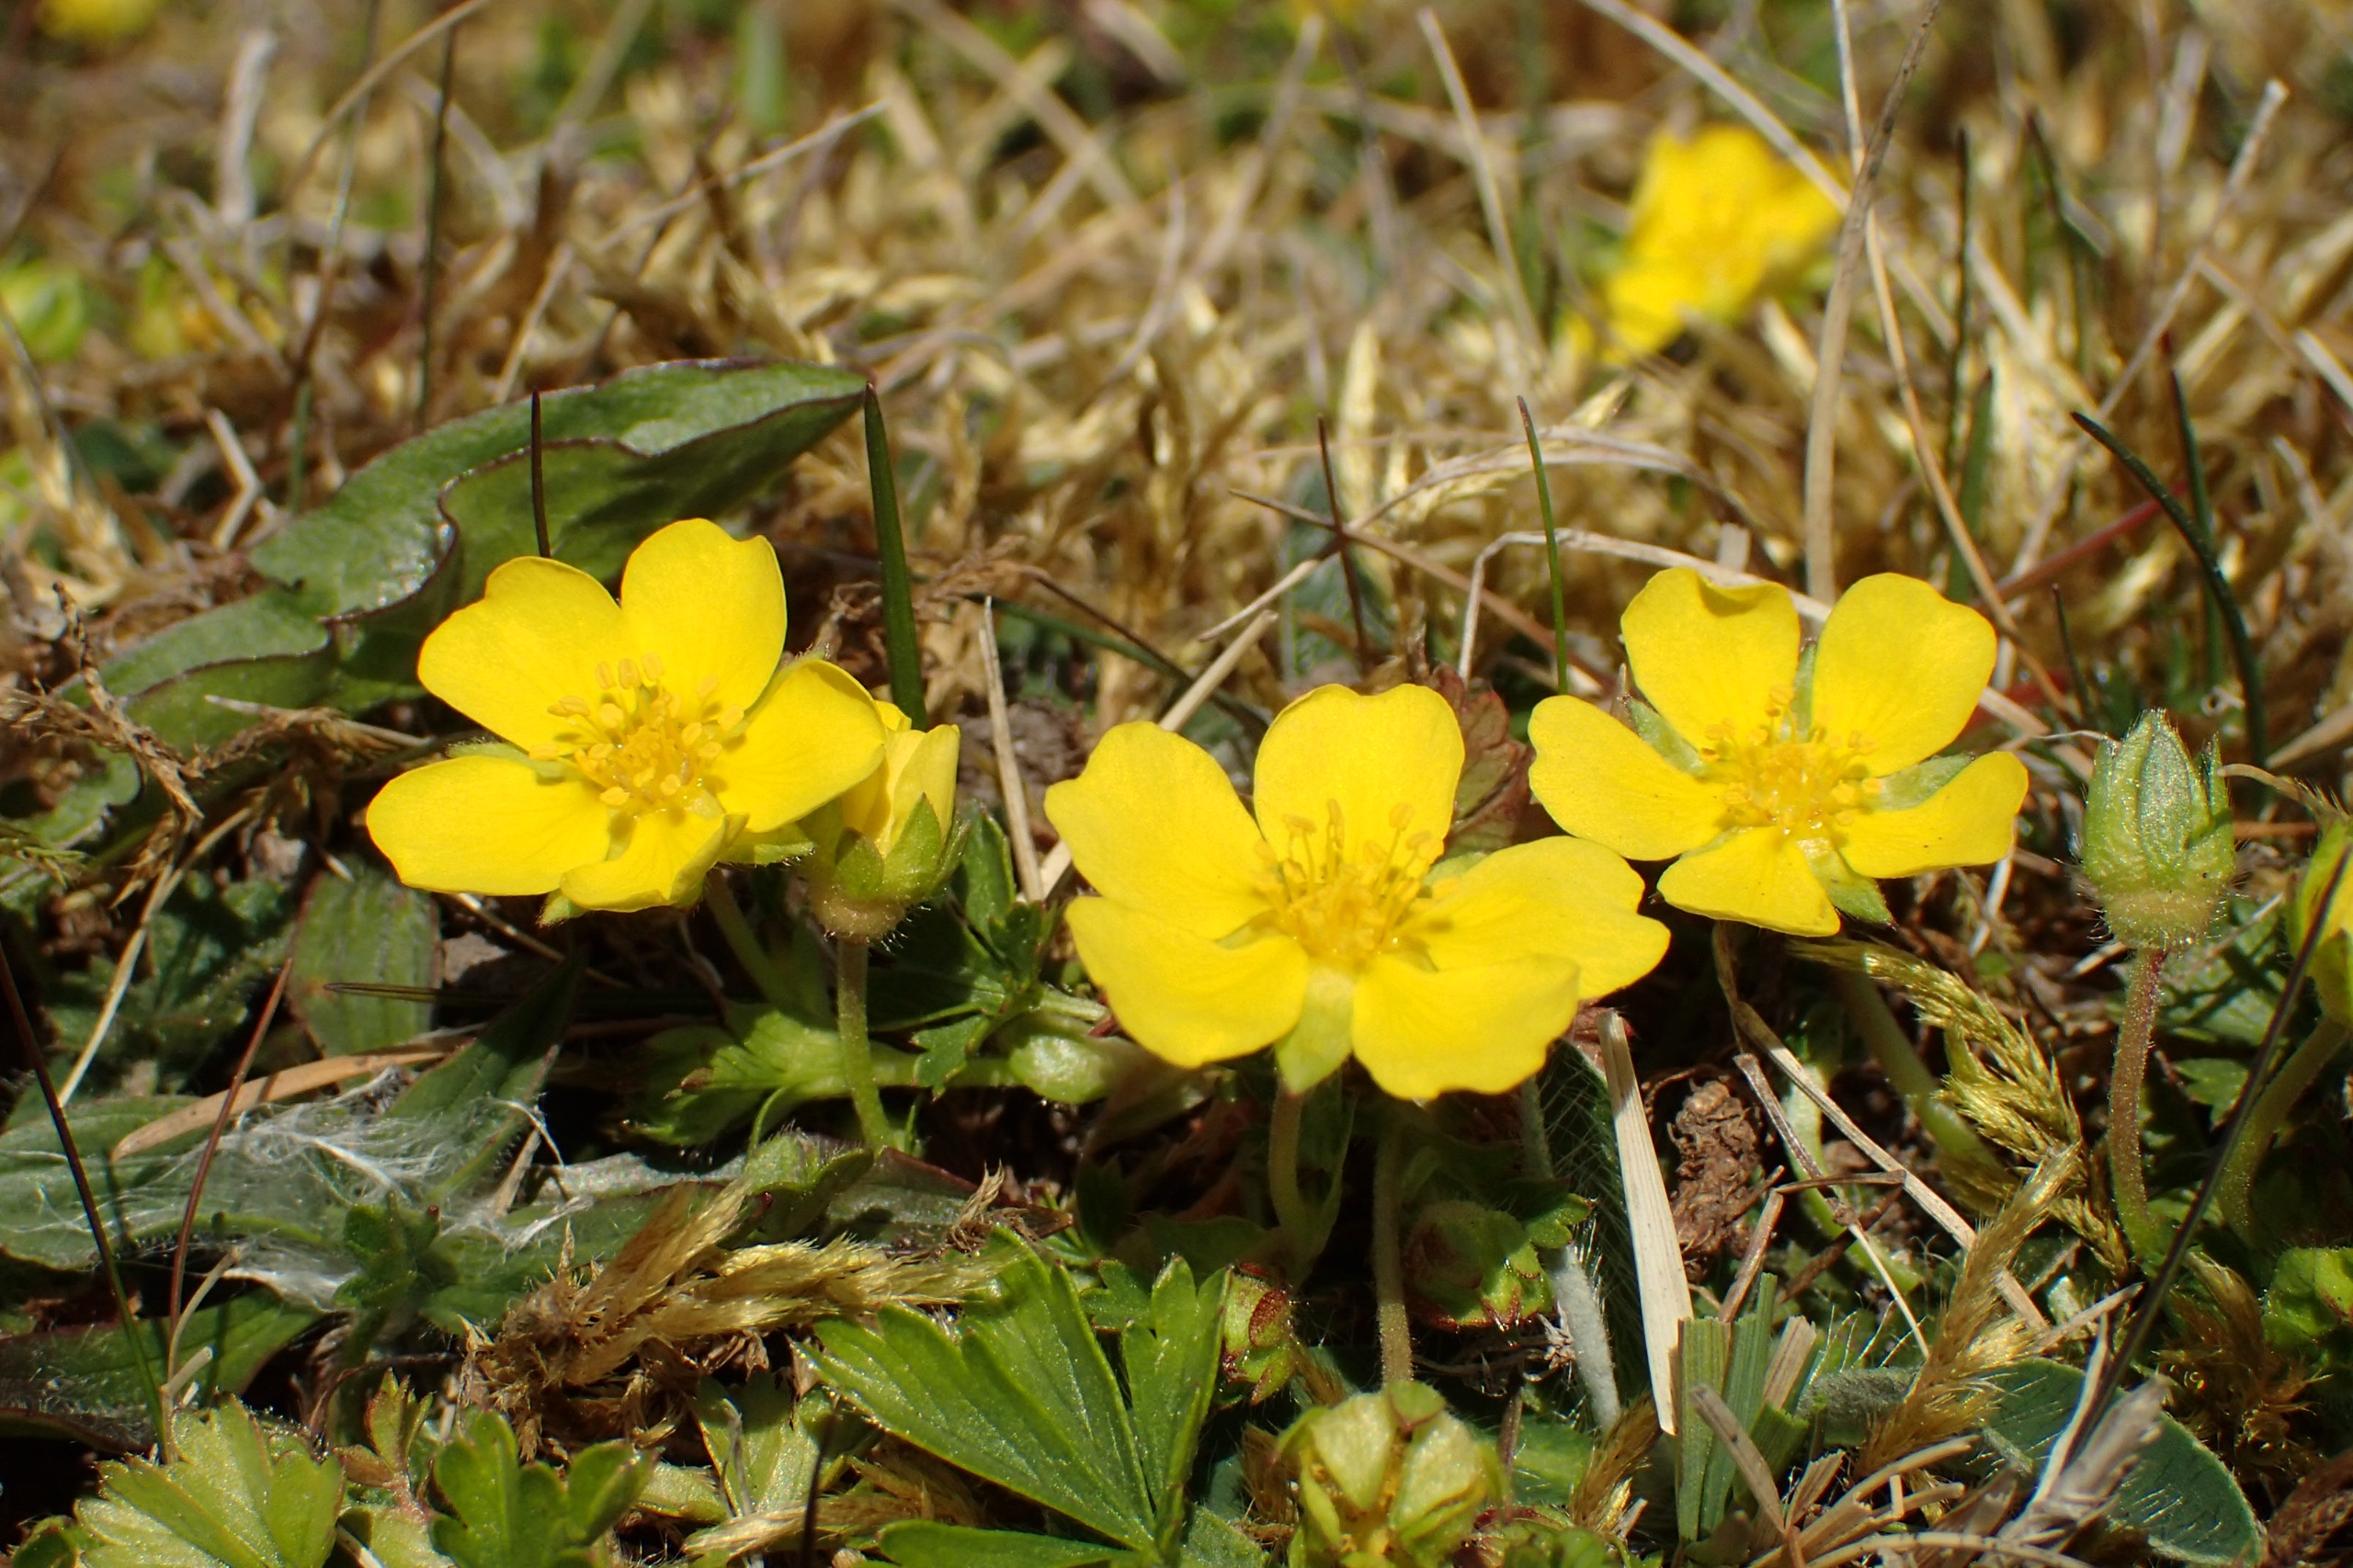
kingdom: Plantae
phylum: Tracheophyta
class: Magnoliopsida
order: Rosales
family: Rosaceae
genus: Potentilla
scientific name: Potentilla verna
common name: Vår-potentil
